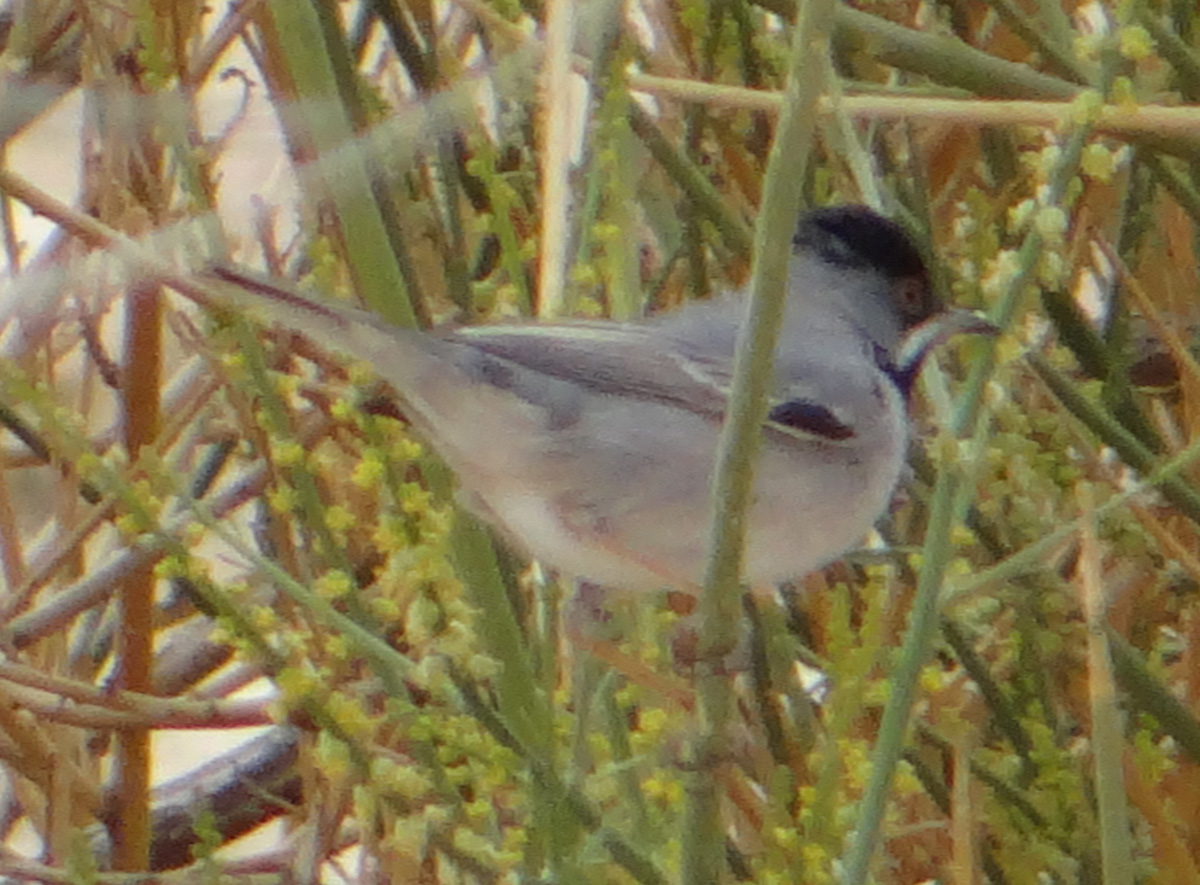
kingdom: Animalia
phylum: Chordata
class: Aves
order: Passeriformes
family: Sylviidae
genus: Sylvia
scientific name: Sylvia ruppeli
